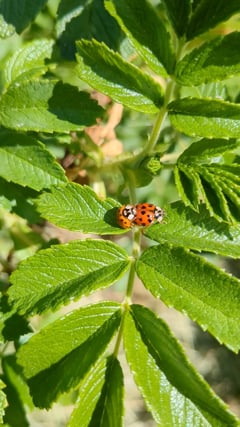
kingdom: Animalia
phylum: Arthropoda
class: Insecta
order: Coleoptera
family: Coccinellidae
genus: Harmonia
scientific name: Harmonia axyridis
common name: Harlequin ladybird
